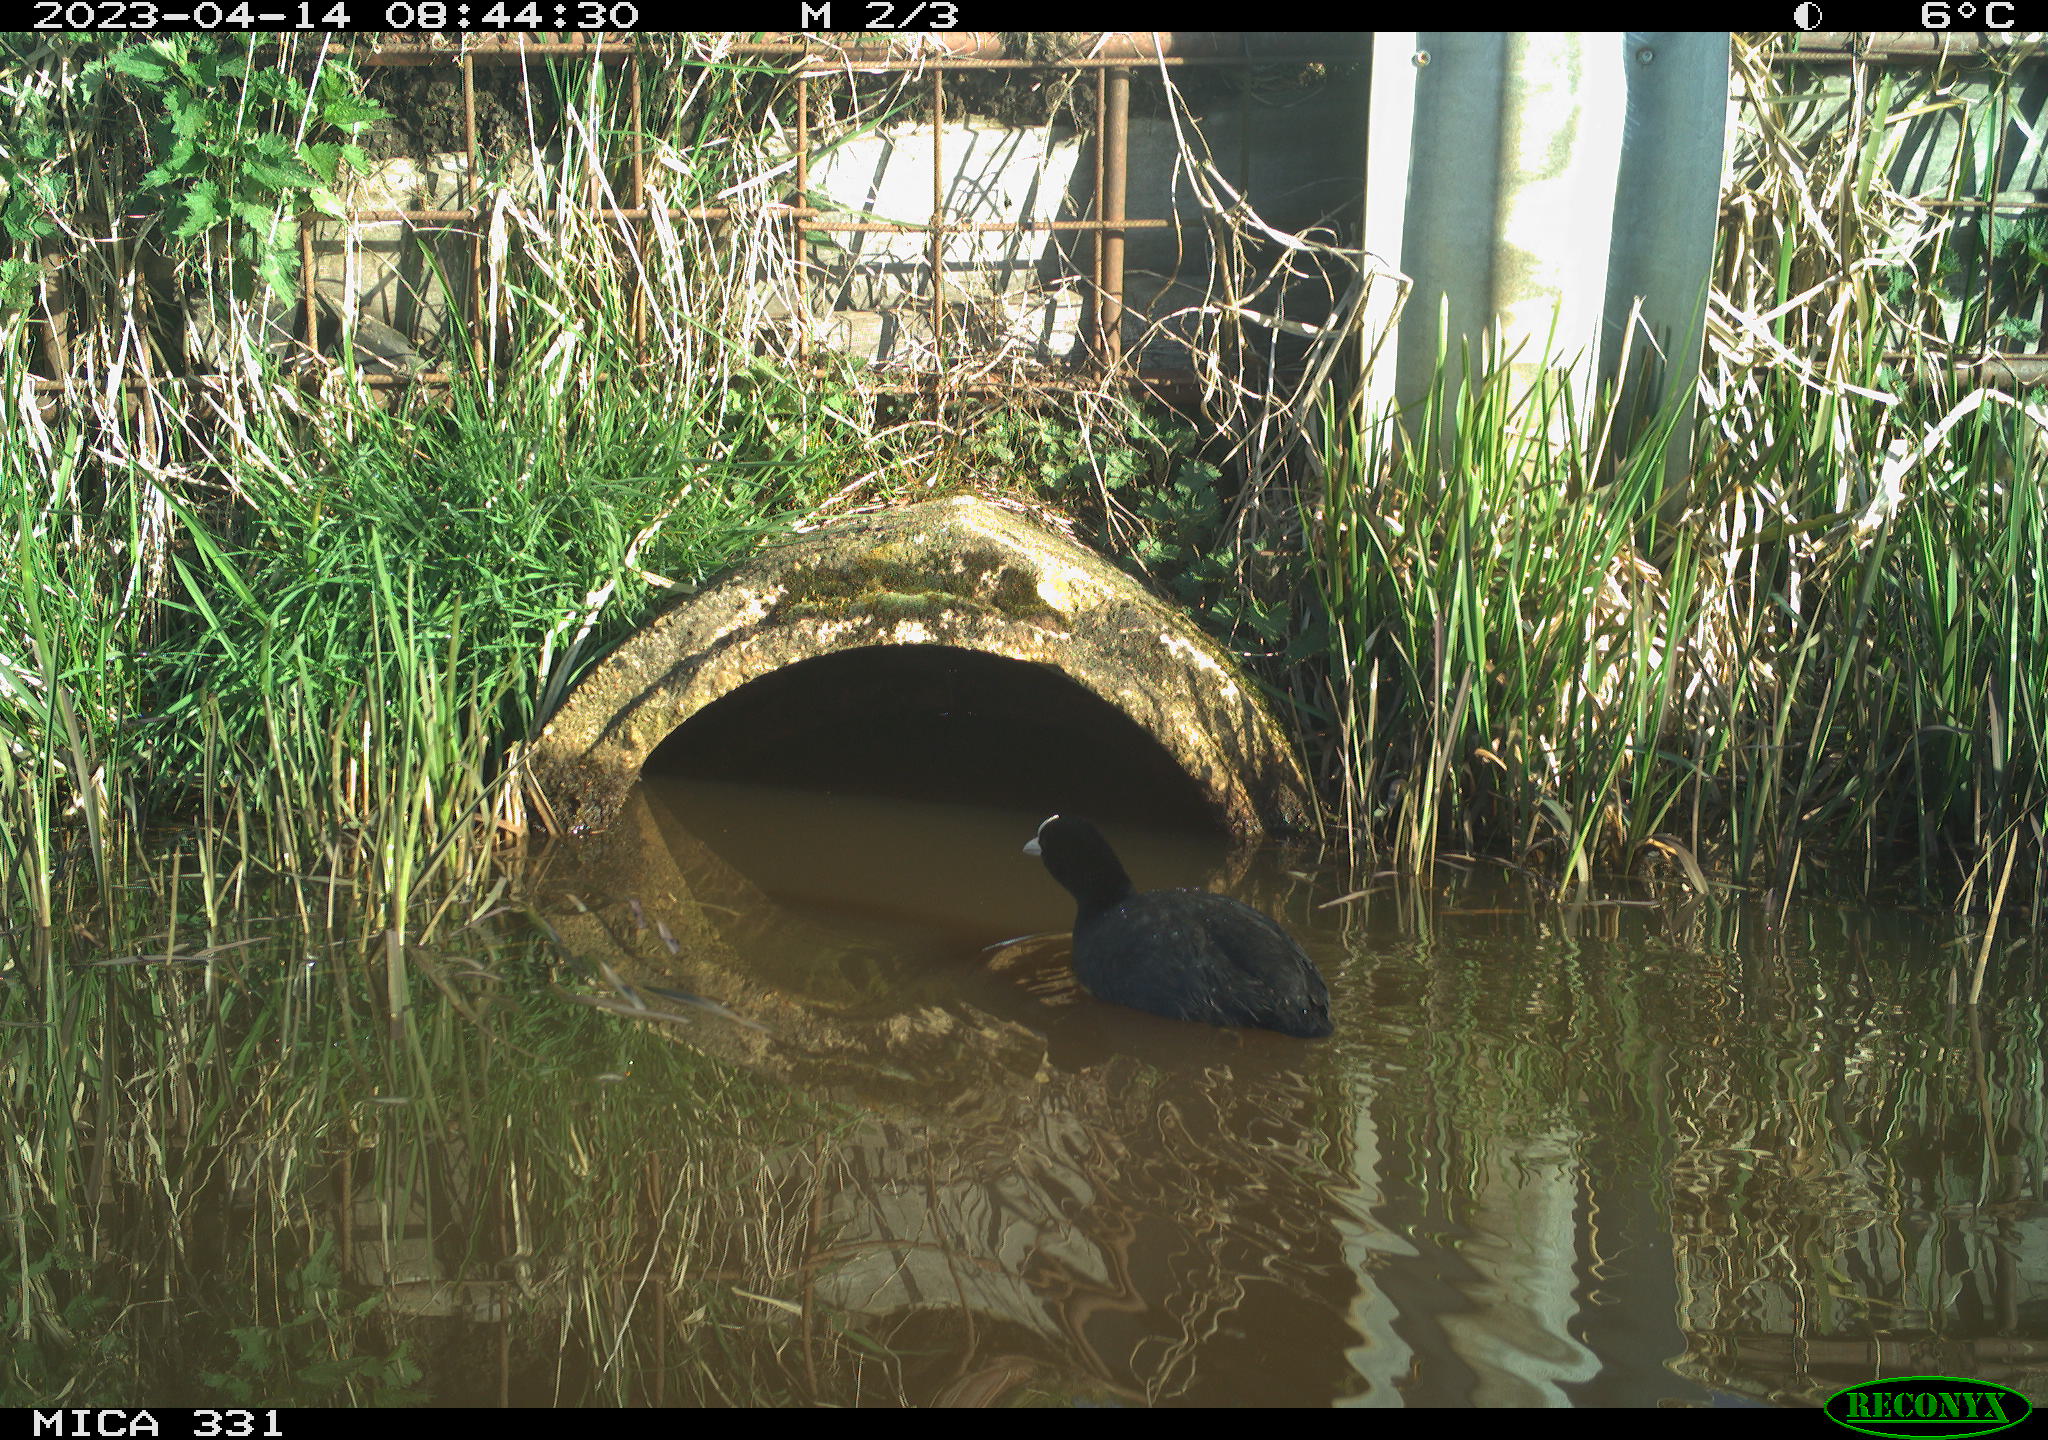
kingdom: Animalia
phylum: Chordata
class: Aves
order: Gruiformes
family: Rallidae
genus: Fulica
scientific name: Fulica atra
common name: Eurasian coot
